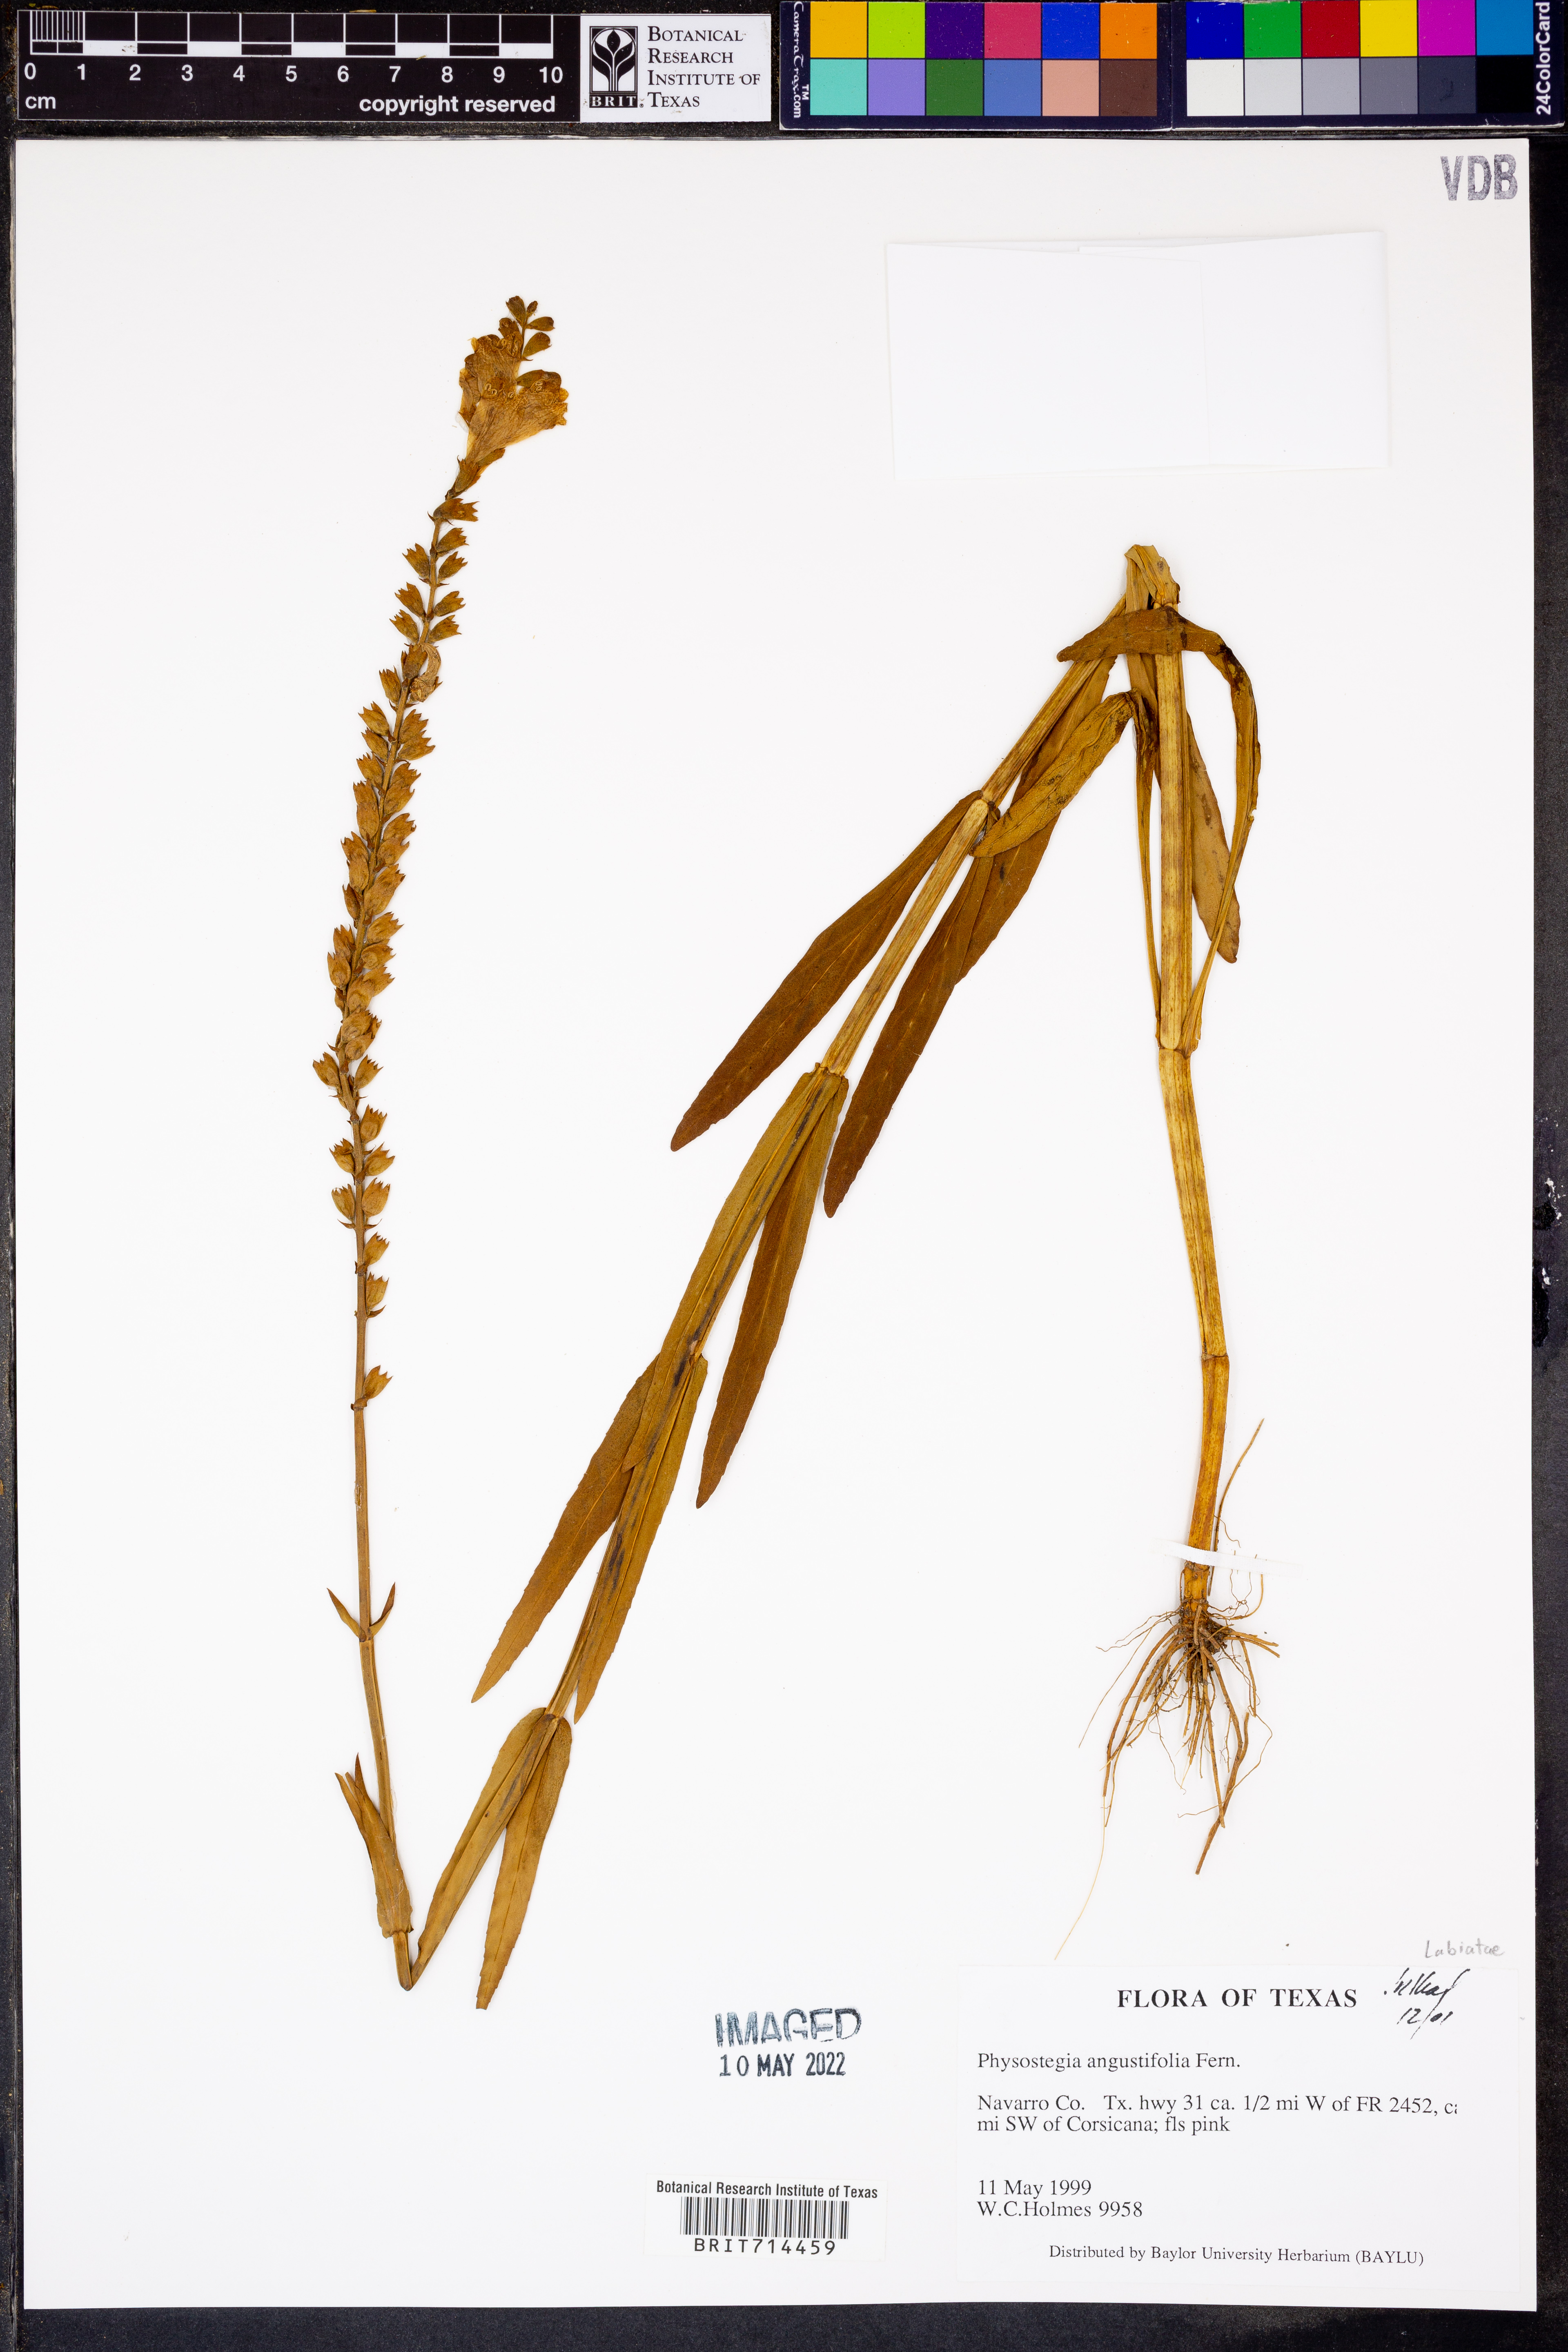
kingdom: Plantae
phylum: Tracheophyta
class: Magnoliopsida
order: Lamiales
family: Lamiaceae
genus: Physostegia
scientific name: Physostegia angustifolia
